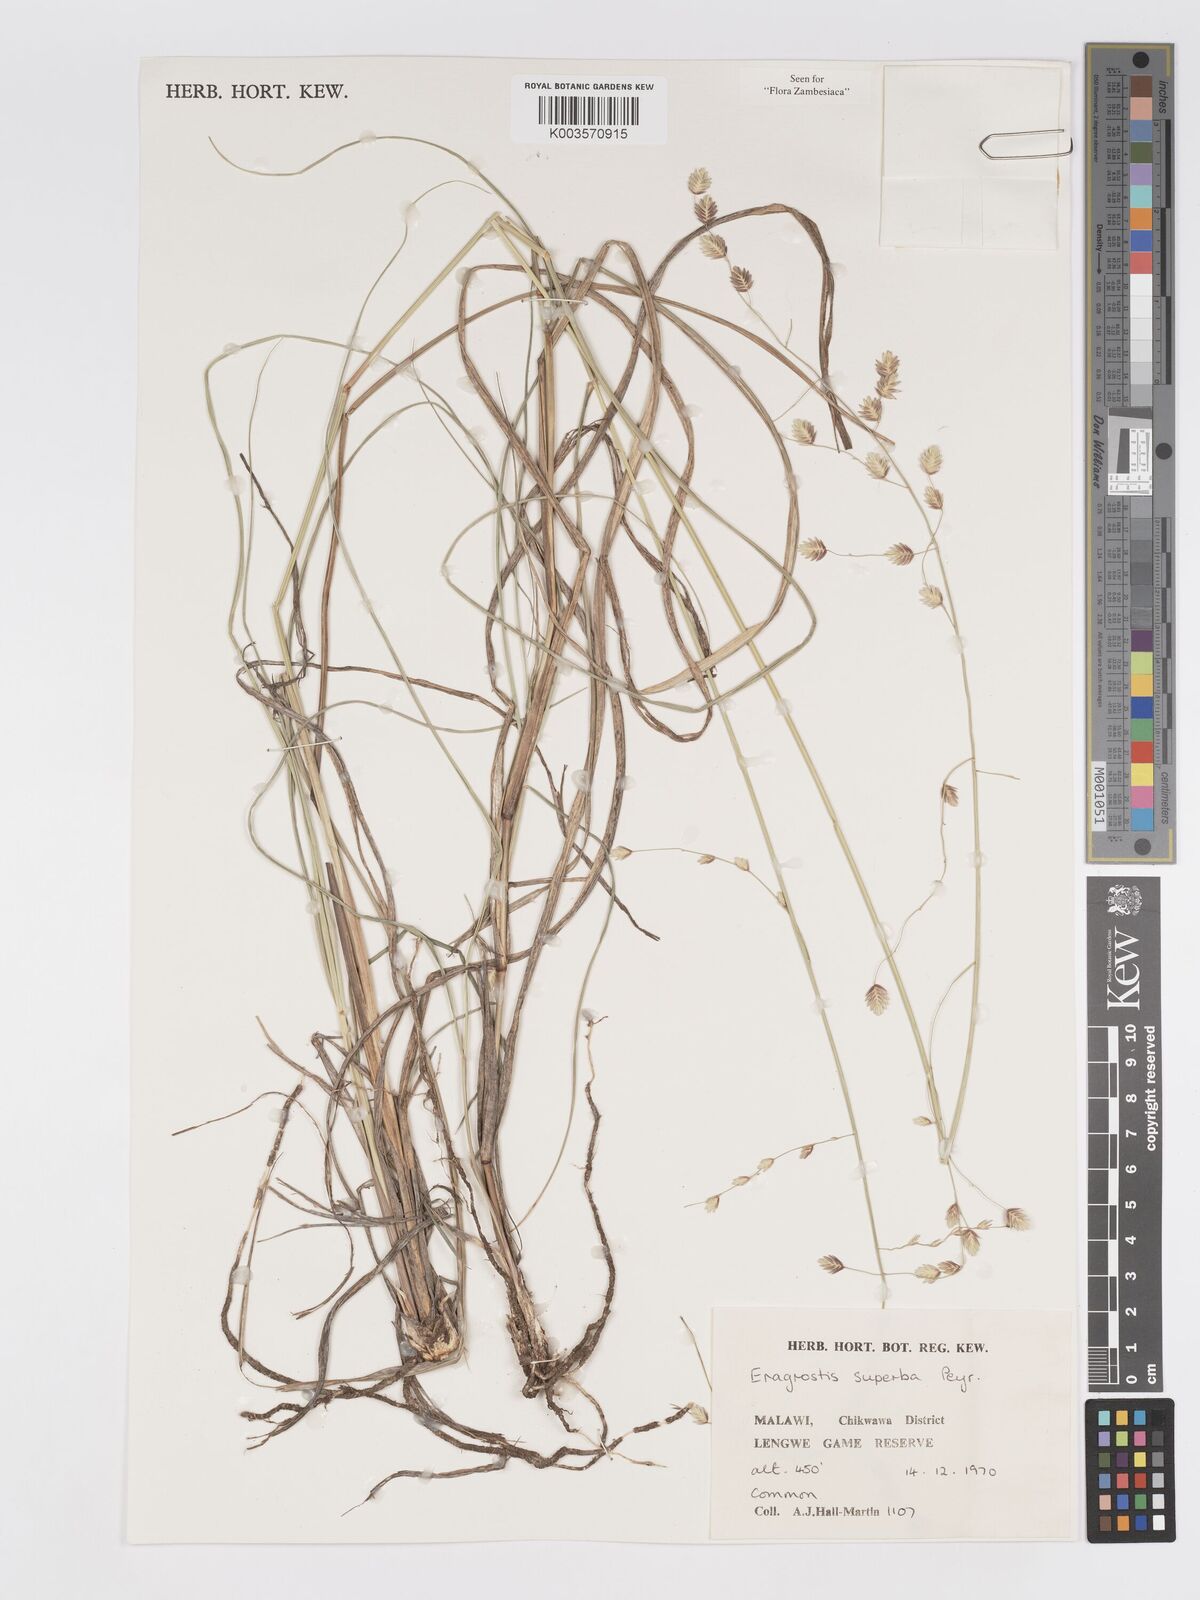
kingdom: Plantae
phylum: Tracheophyta
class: Liliopsida
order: Poales
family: Poaceae
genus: Eragrostis
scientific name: Eragrostis superba
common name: Wilman lovegrass
